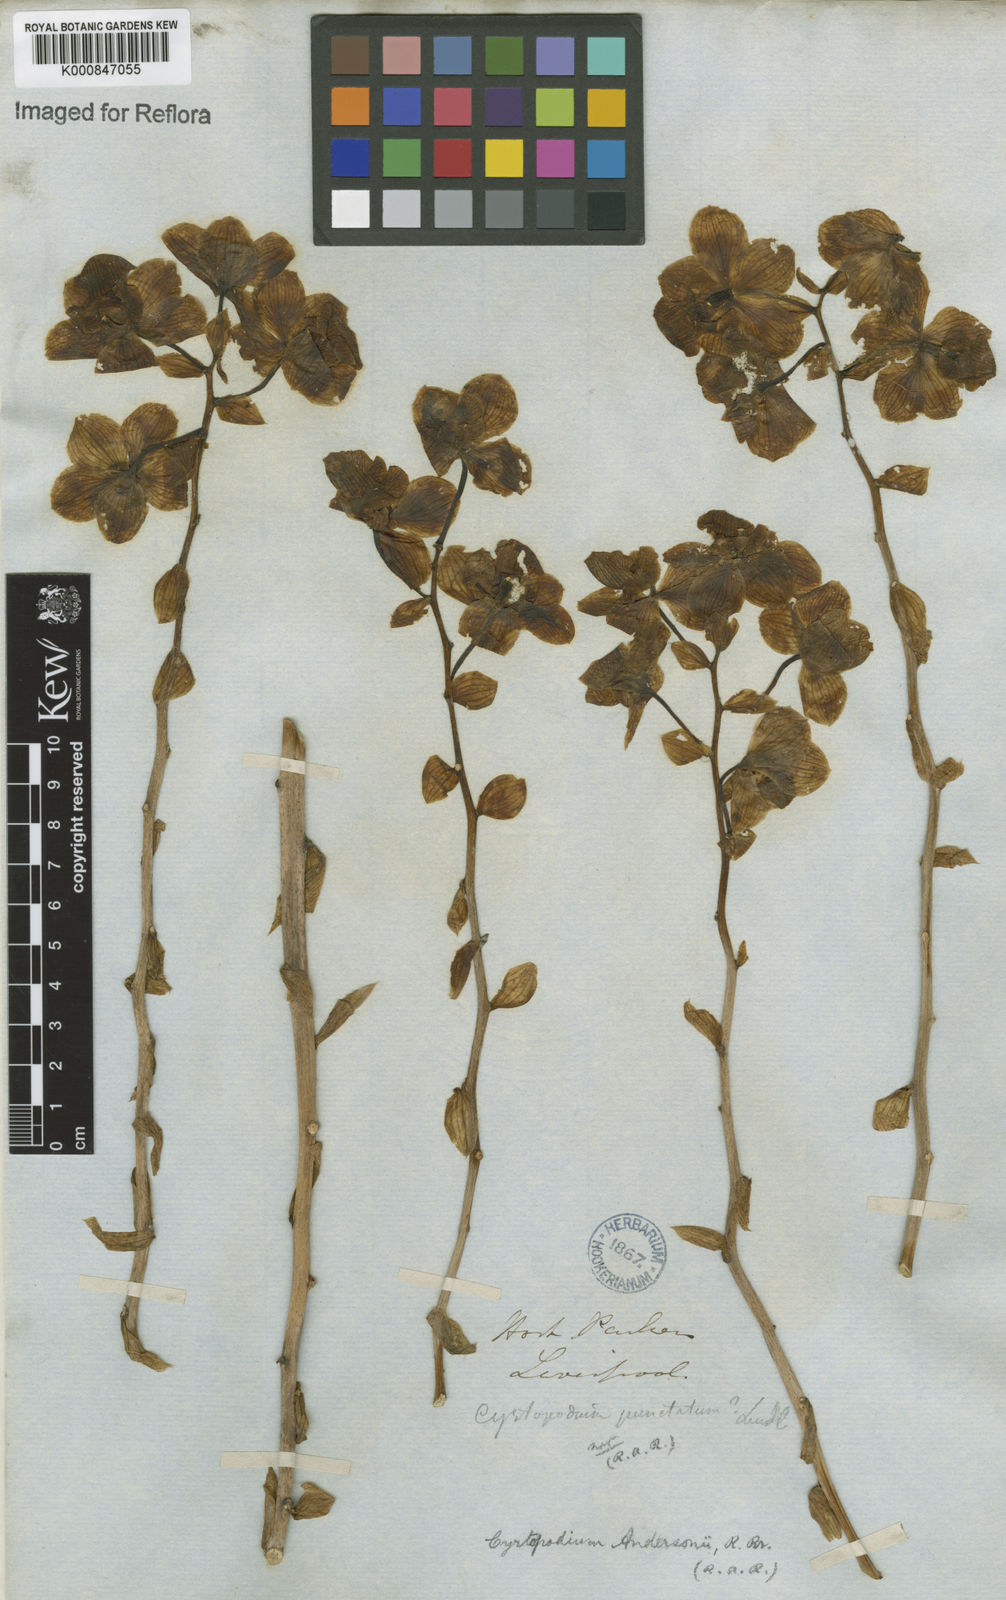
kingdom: Plantae
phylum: Tracheophyta
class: Liliopsida
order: Asparagales
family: Orchidaceae
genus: Cyrtopodium
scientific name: Cyrtopodium andersonii
